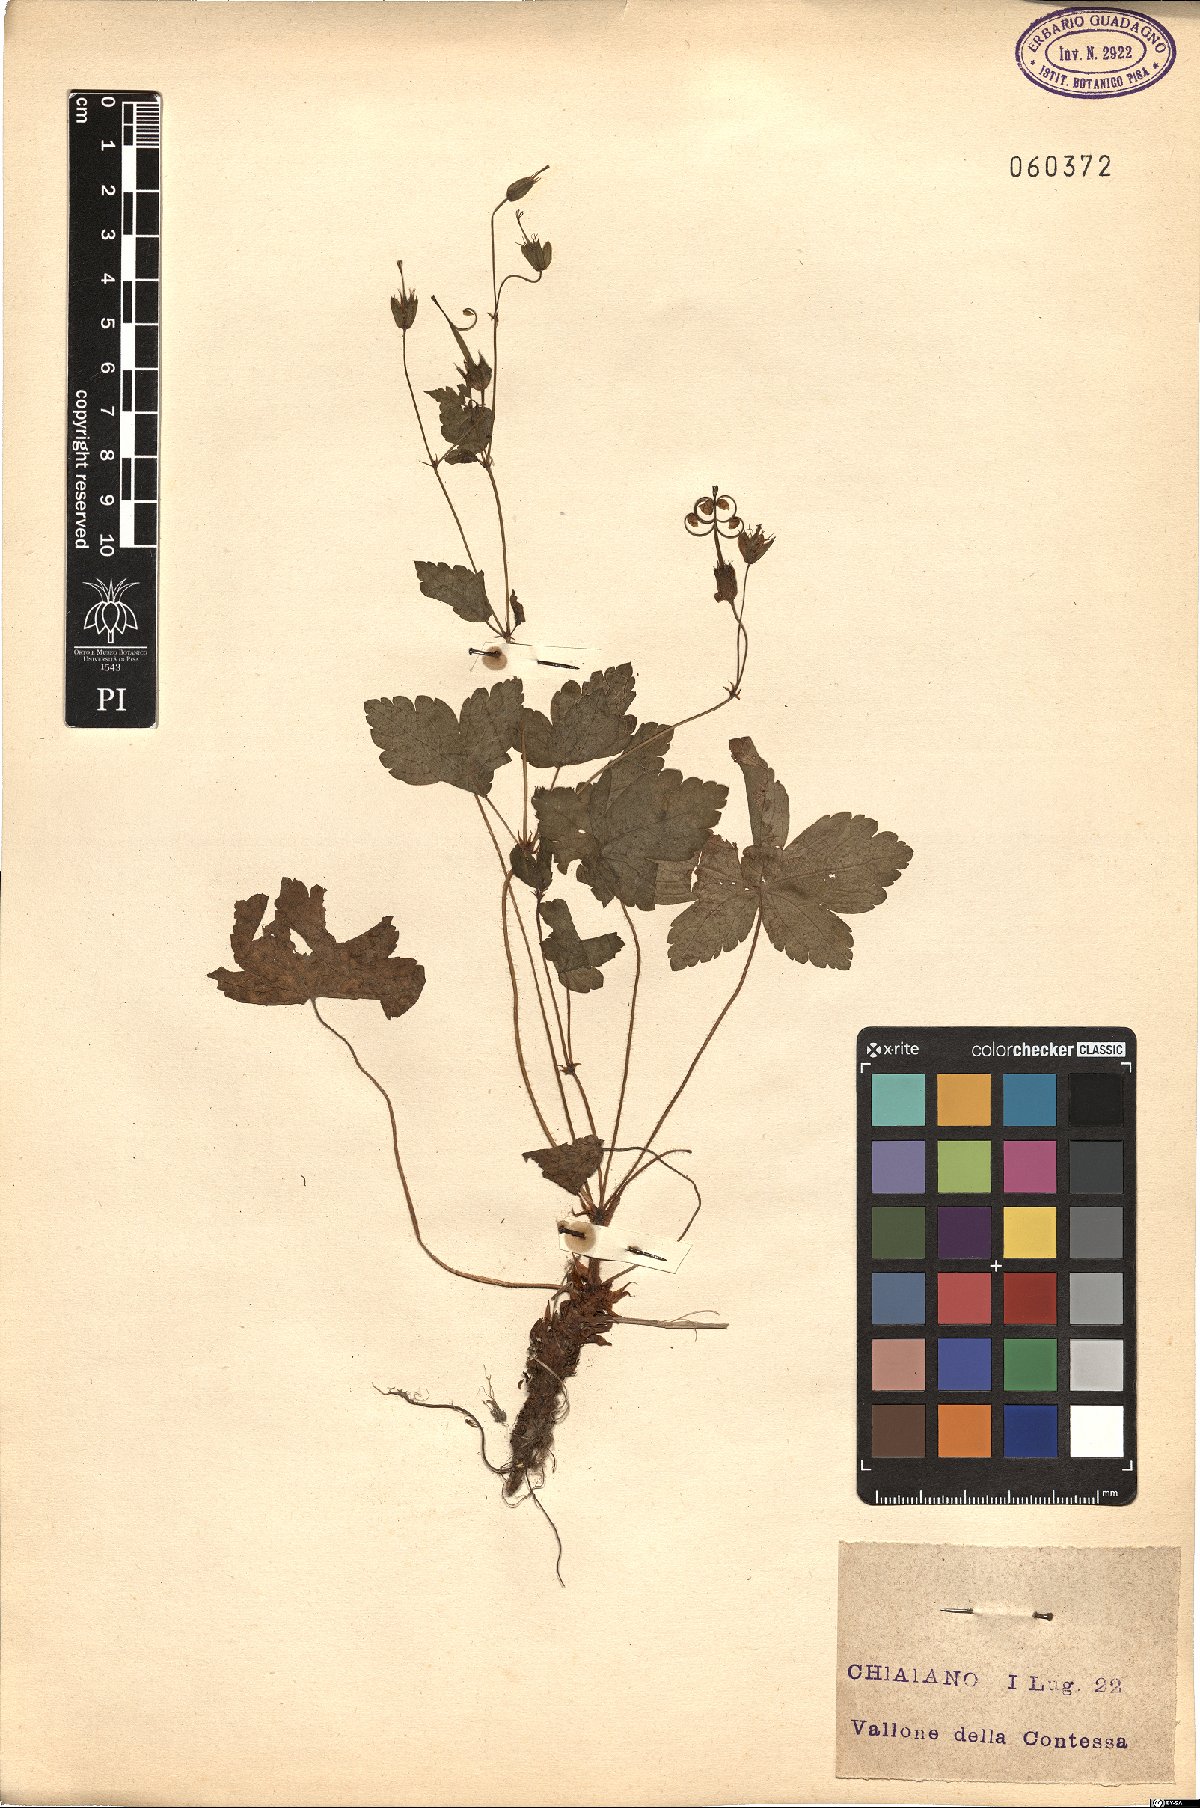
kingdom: Plantae
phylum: Tracheophyta
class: Magnoliopsida
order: Geraniales
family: Geraniaceae
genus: Geranium
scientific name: Geranium versicolor
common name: Pencilled crane's-bill
